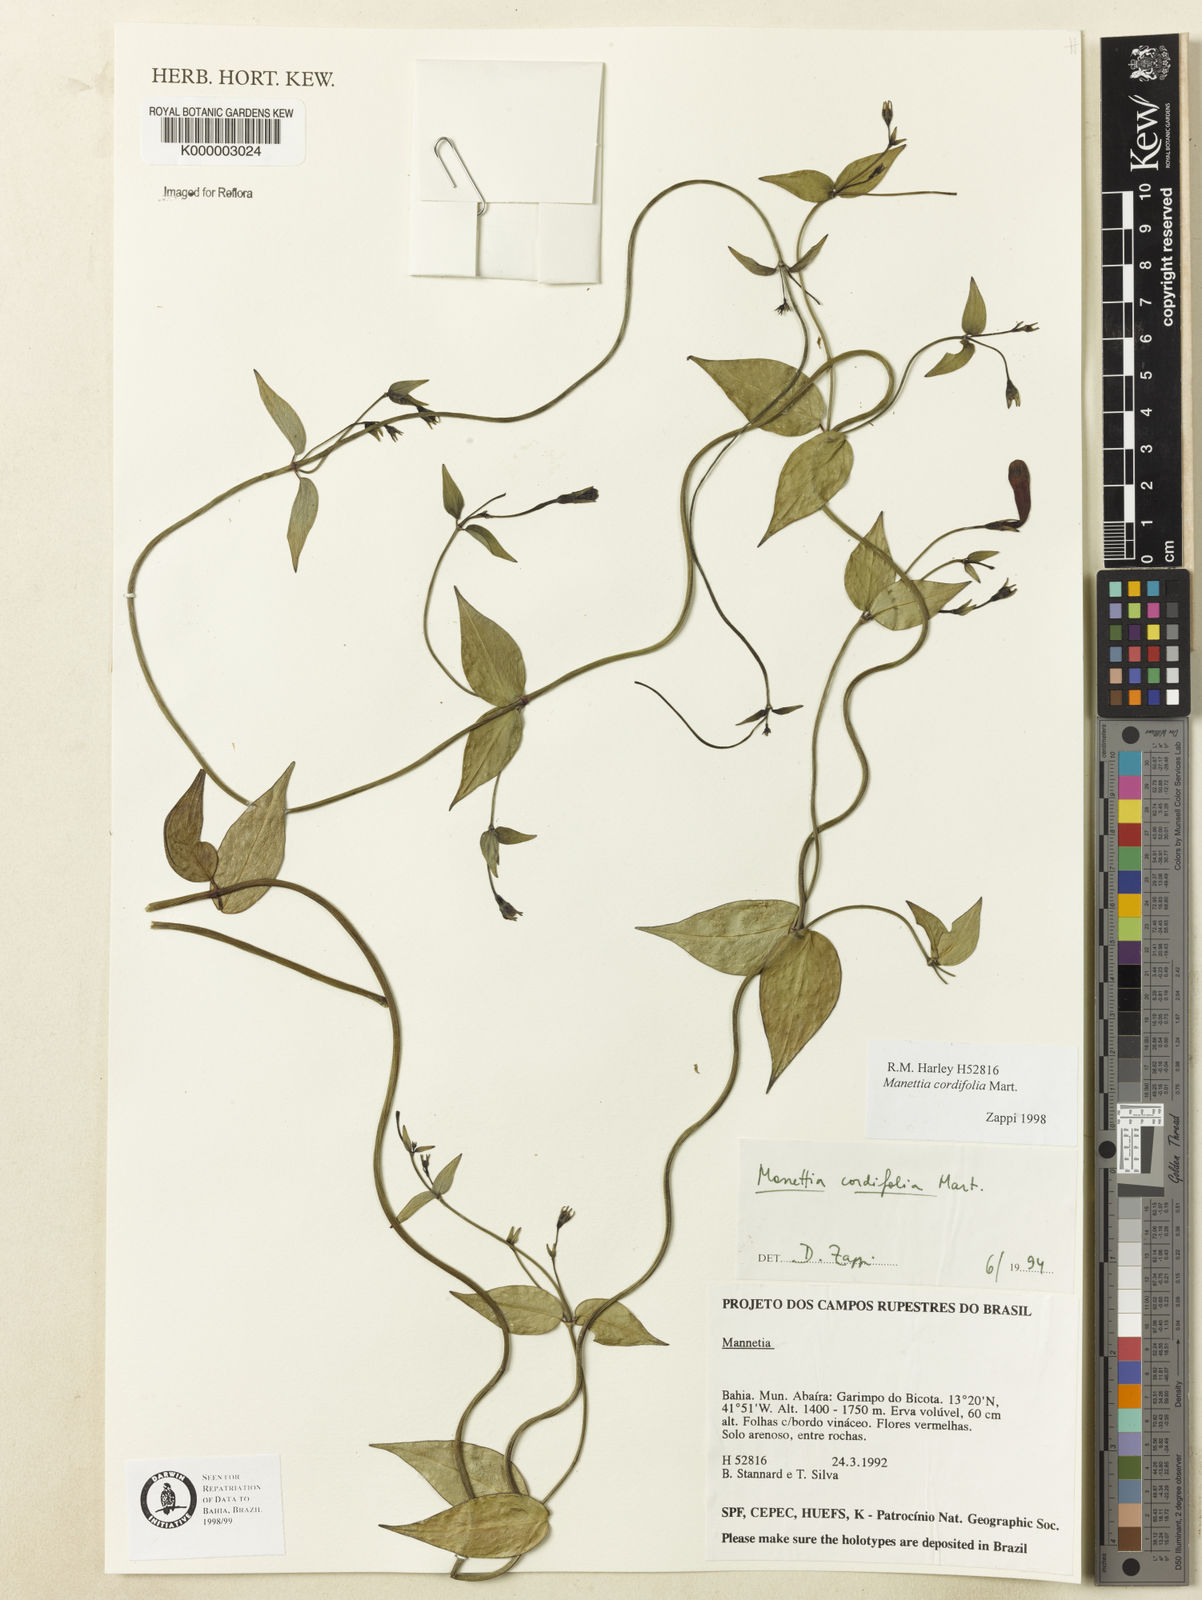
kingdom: Plantae
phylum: Tracheophyta
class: Magnoliopsida
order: Gentianales
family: Rubiaceae
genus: Manettia
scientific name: Manettia cordifolia
